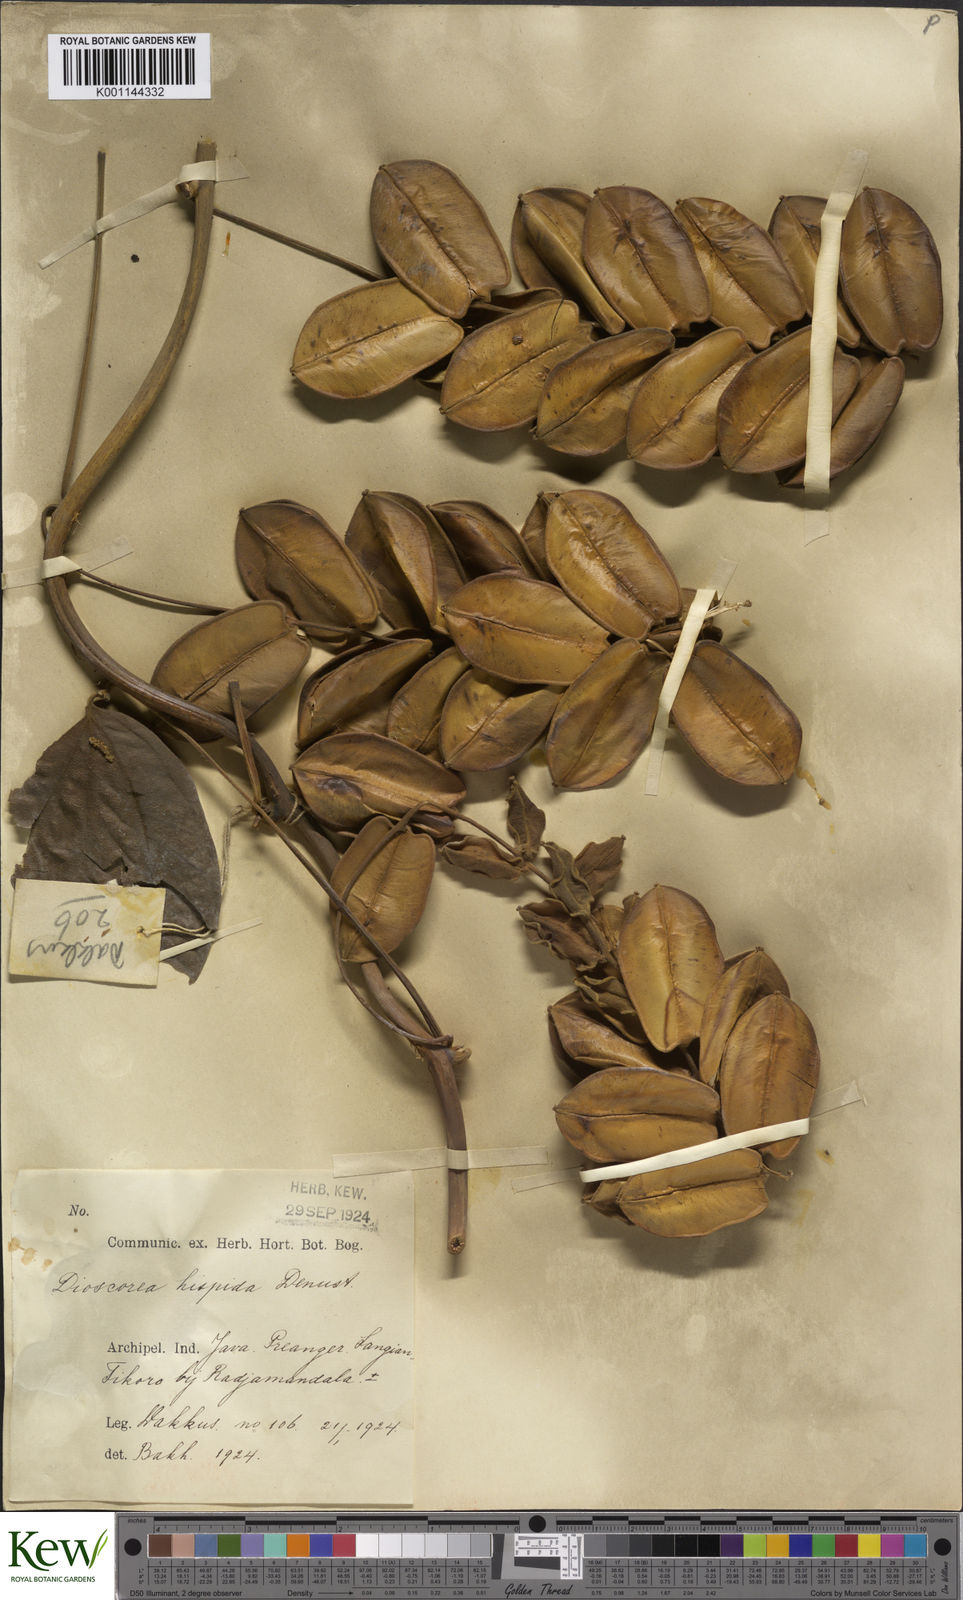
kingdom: Plantae
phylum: Tracheophyta
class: Liliopsida
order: Dioscoreales
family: Dioscoreaceae
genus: Dioscorea
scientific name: Dioscorea hispida
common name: Asiatic bitter yam
